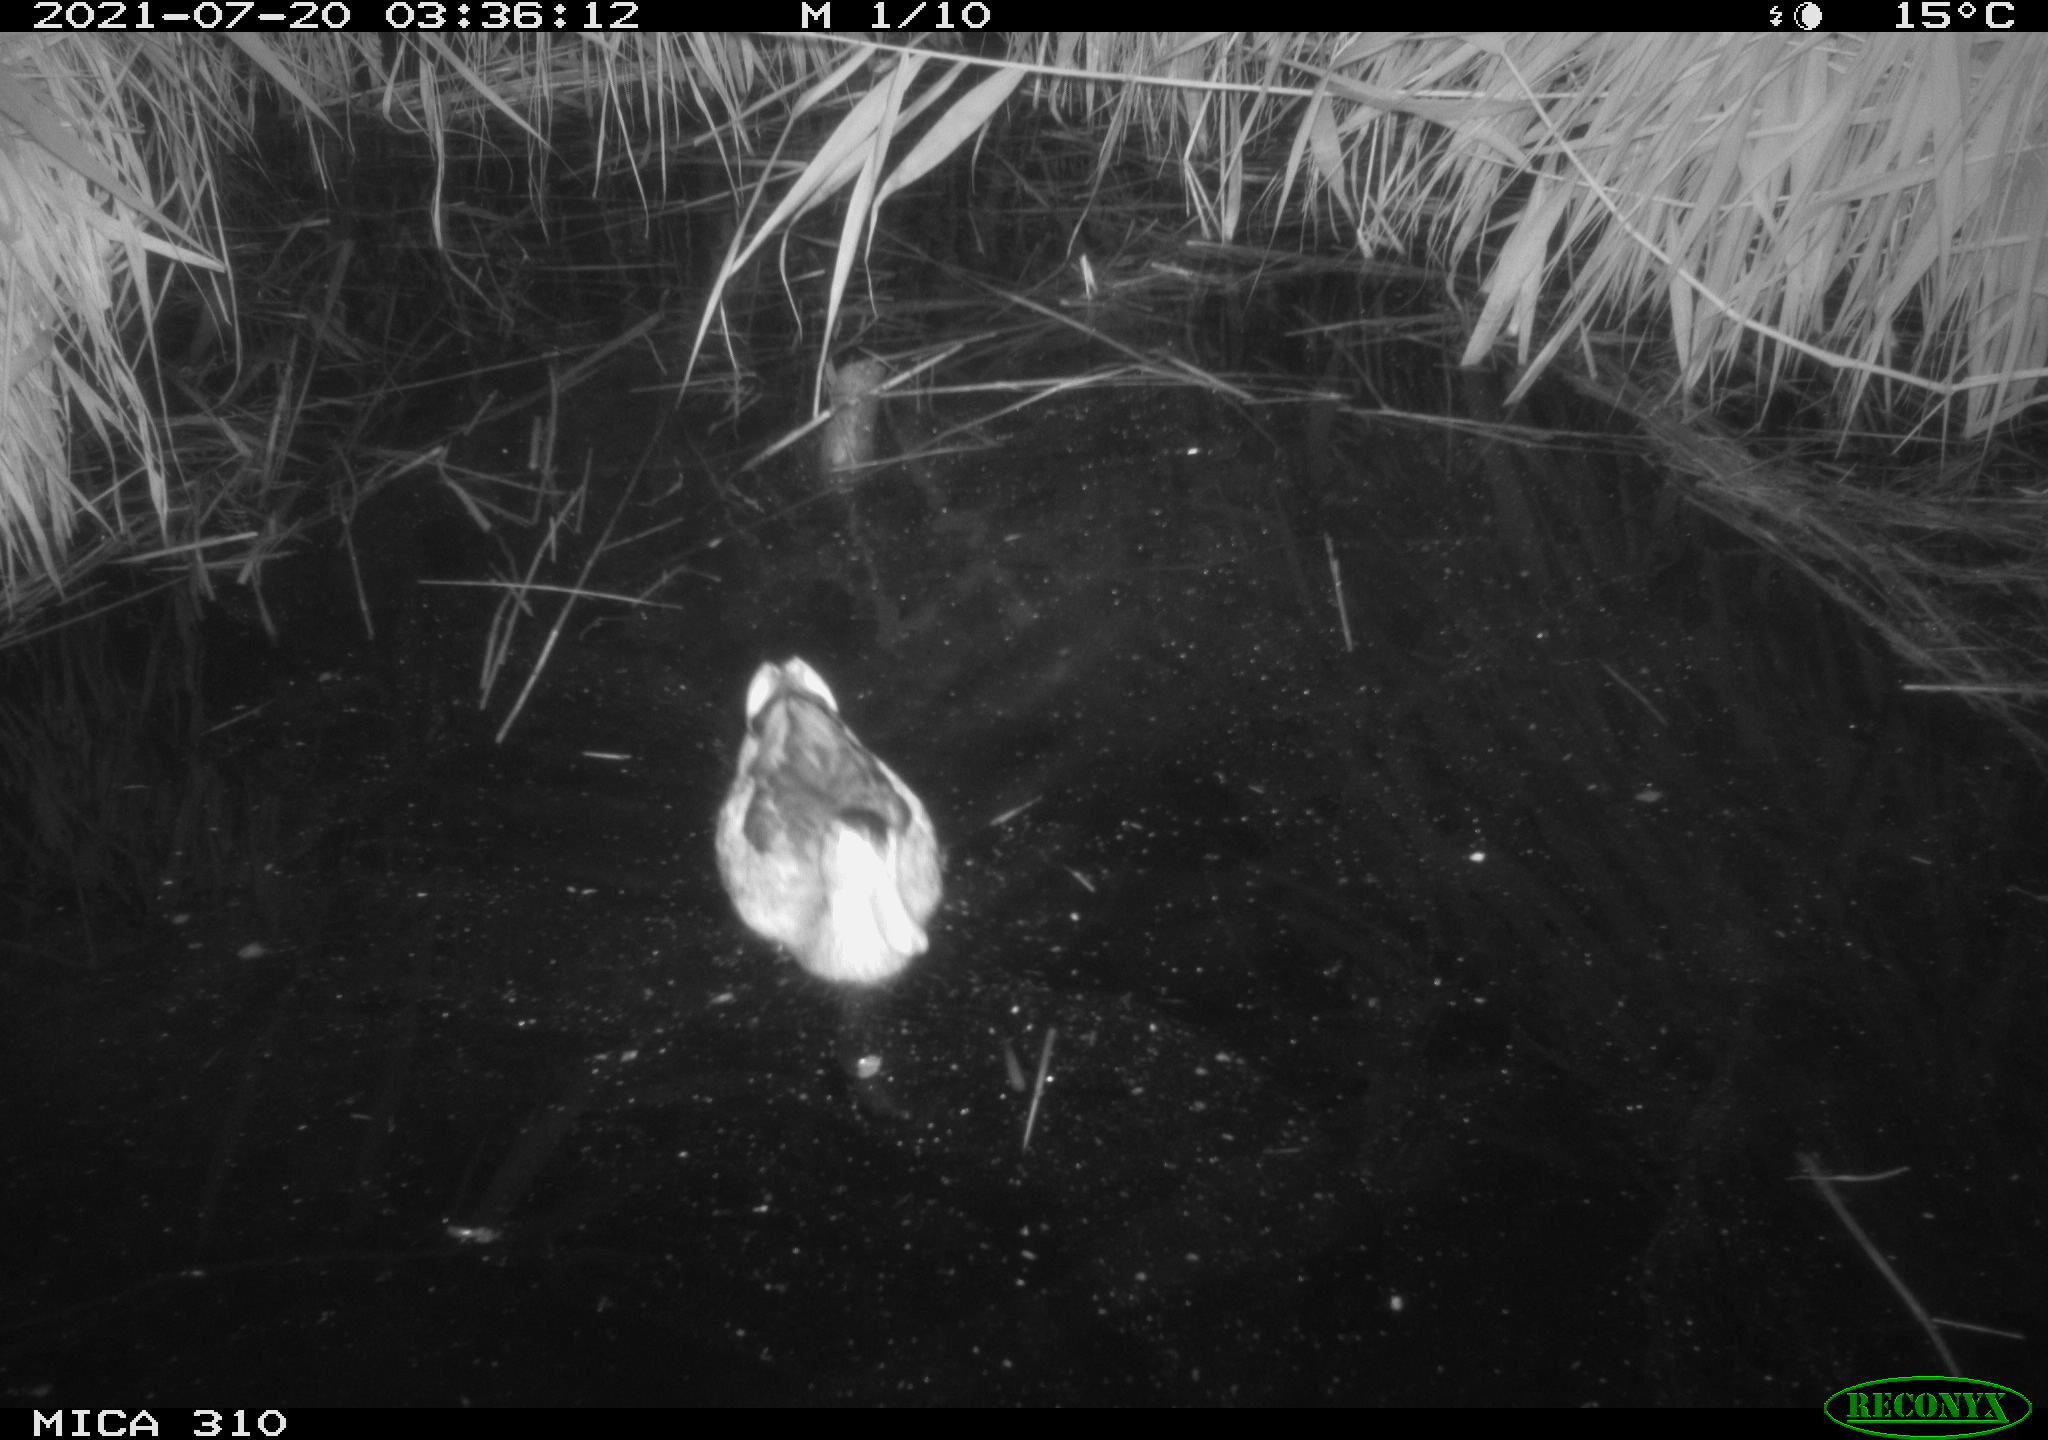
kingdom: Animalia
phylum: Chordata
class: Aves
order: Anseriformes
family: Anatidae
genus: Mareca
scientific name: Mareca strepera
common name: Gadwall
